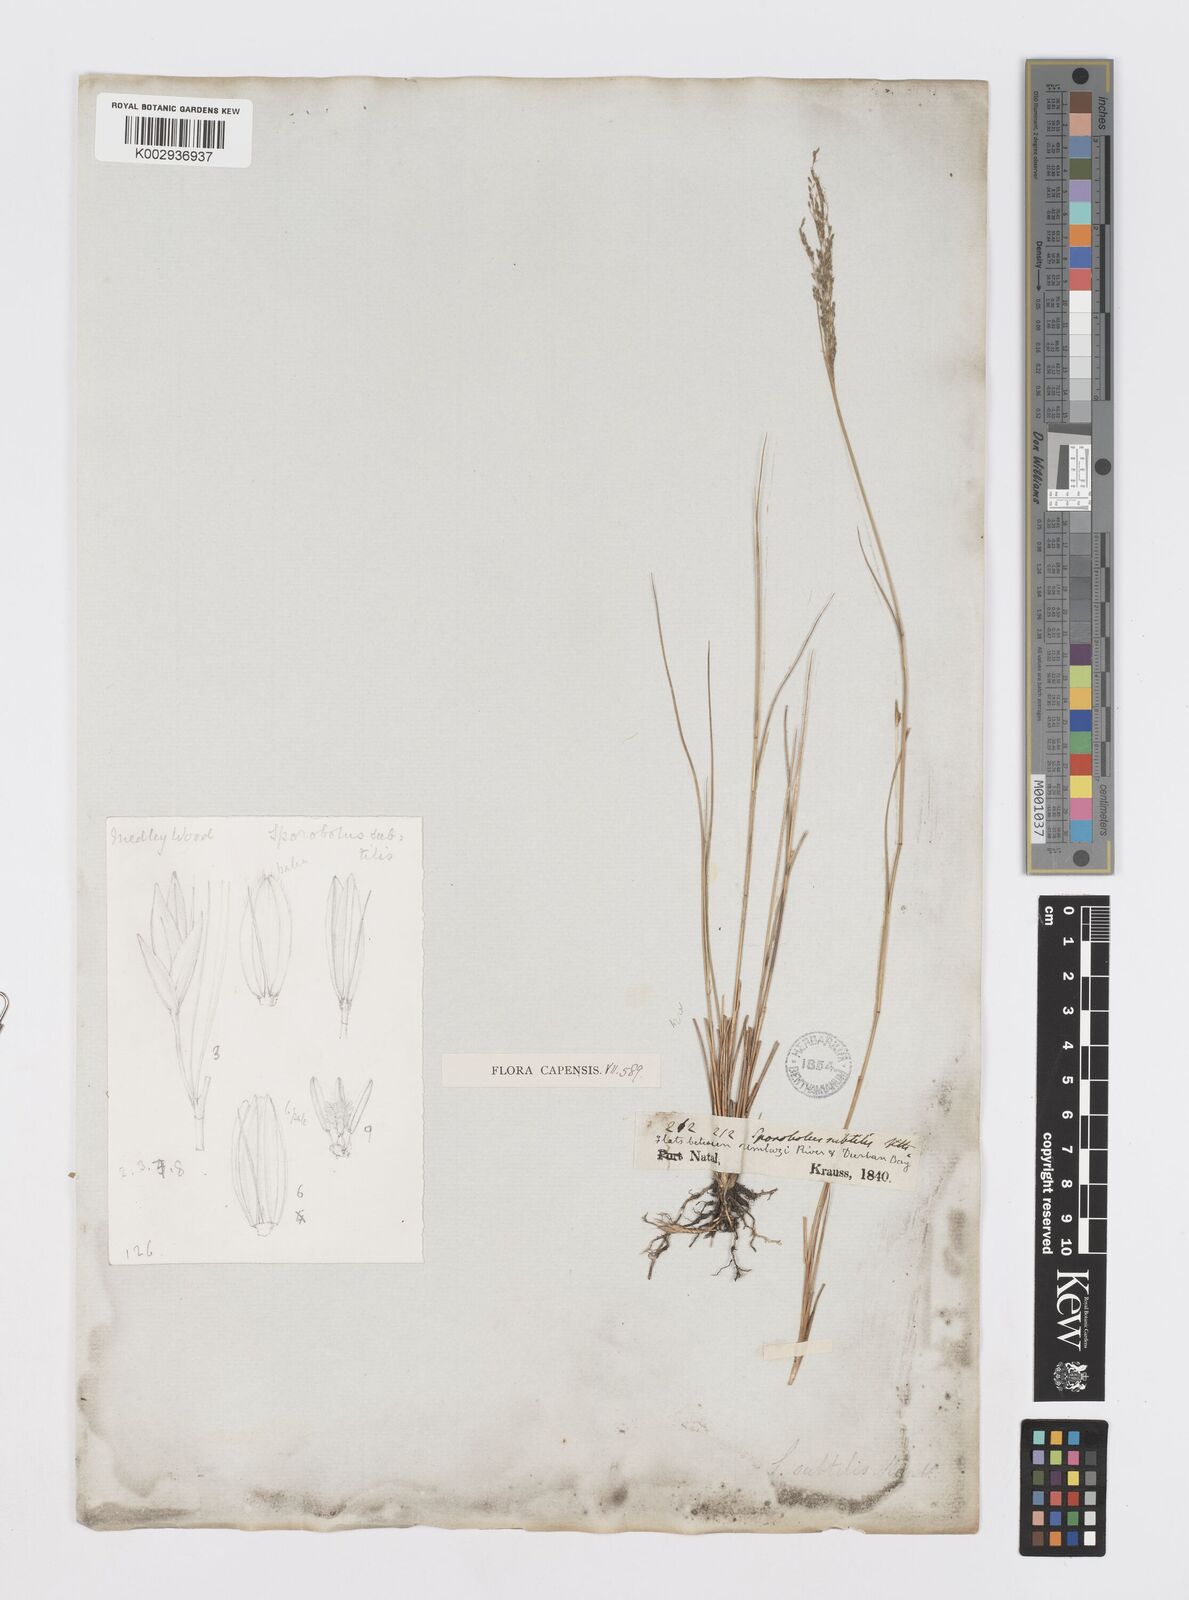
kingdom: Plantae
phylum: Tracheophyta
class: Liliopsida
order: Poales
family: Poaceae
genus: Sporobolus
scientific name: Sporobolus subtilis
